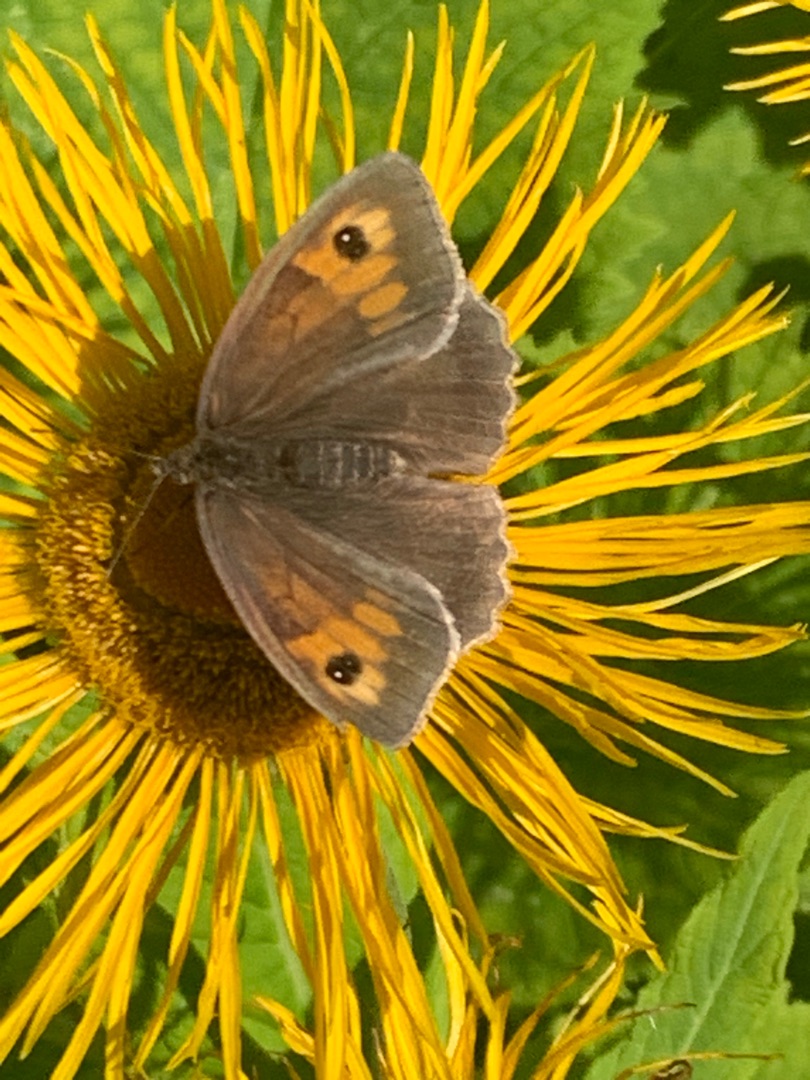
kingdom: Animalia
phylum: Arthropoda
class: Insecta
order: Lepidoptera
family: Nymphalidae
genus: Maniola
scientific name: Maniola jurtina
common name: Græsrandøje
